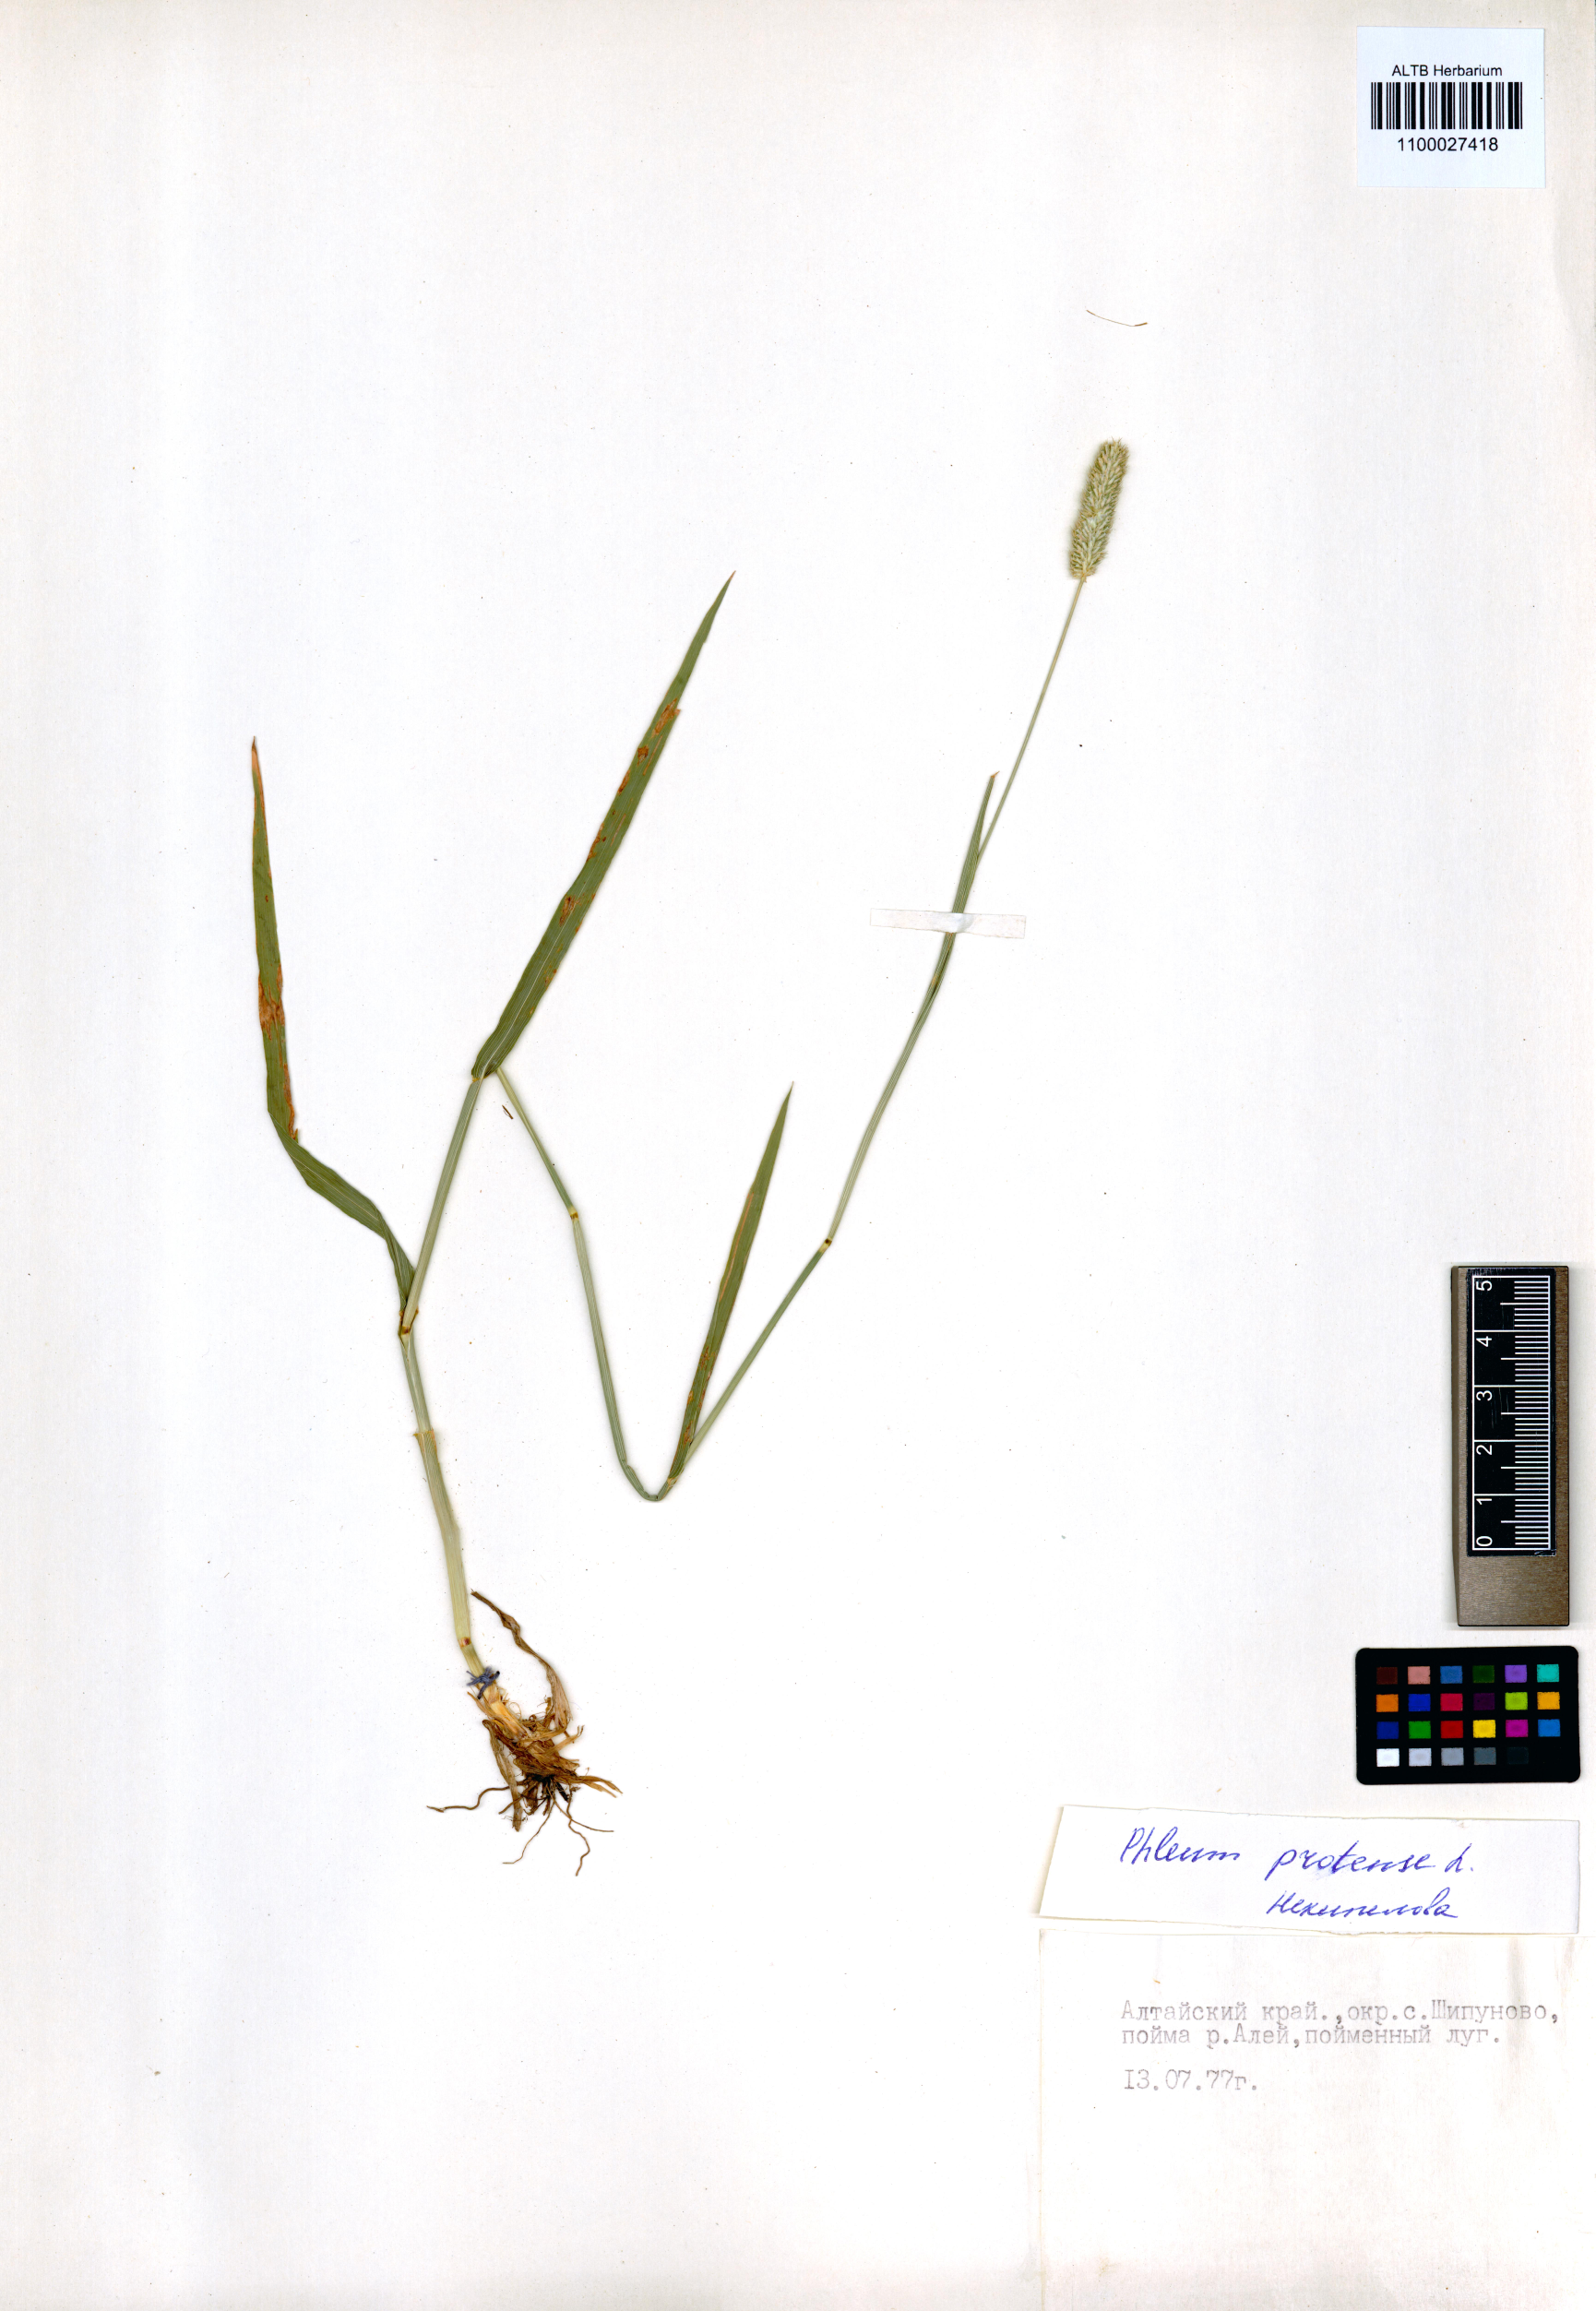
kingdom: Plantae
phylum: Tracheophyta
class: Liliopsida
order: Poales
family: Poaceae
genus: Phleum
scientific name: Phleum pratense
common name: Timothy grass
